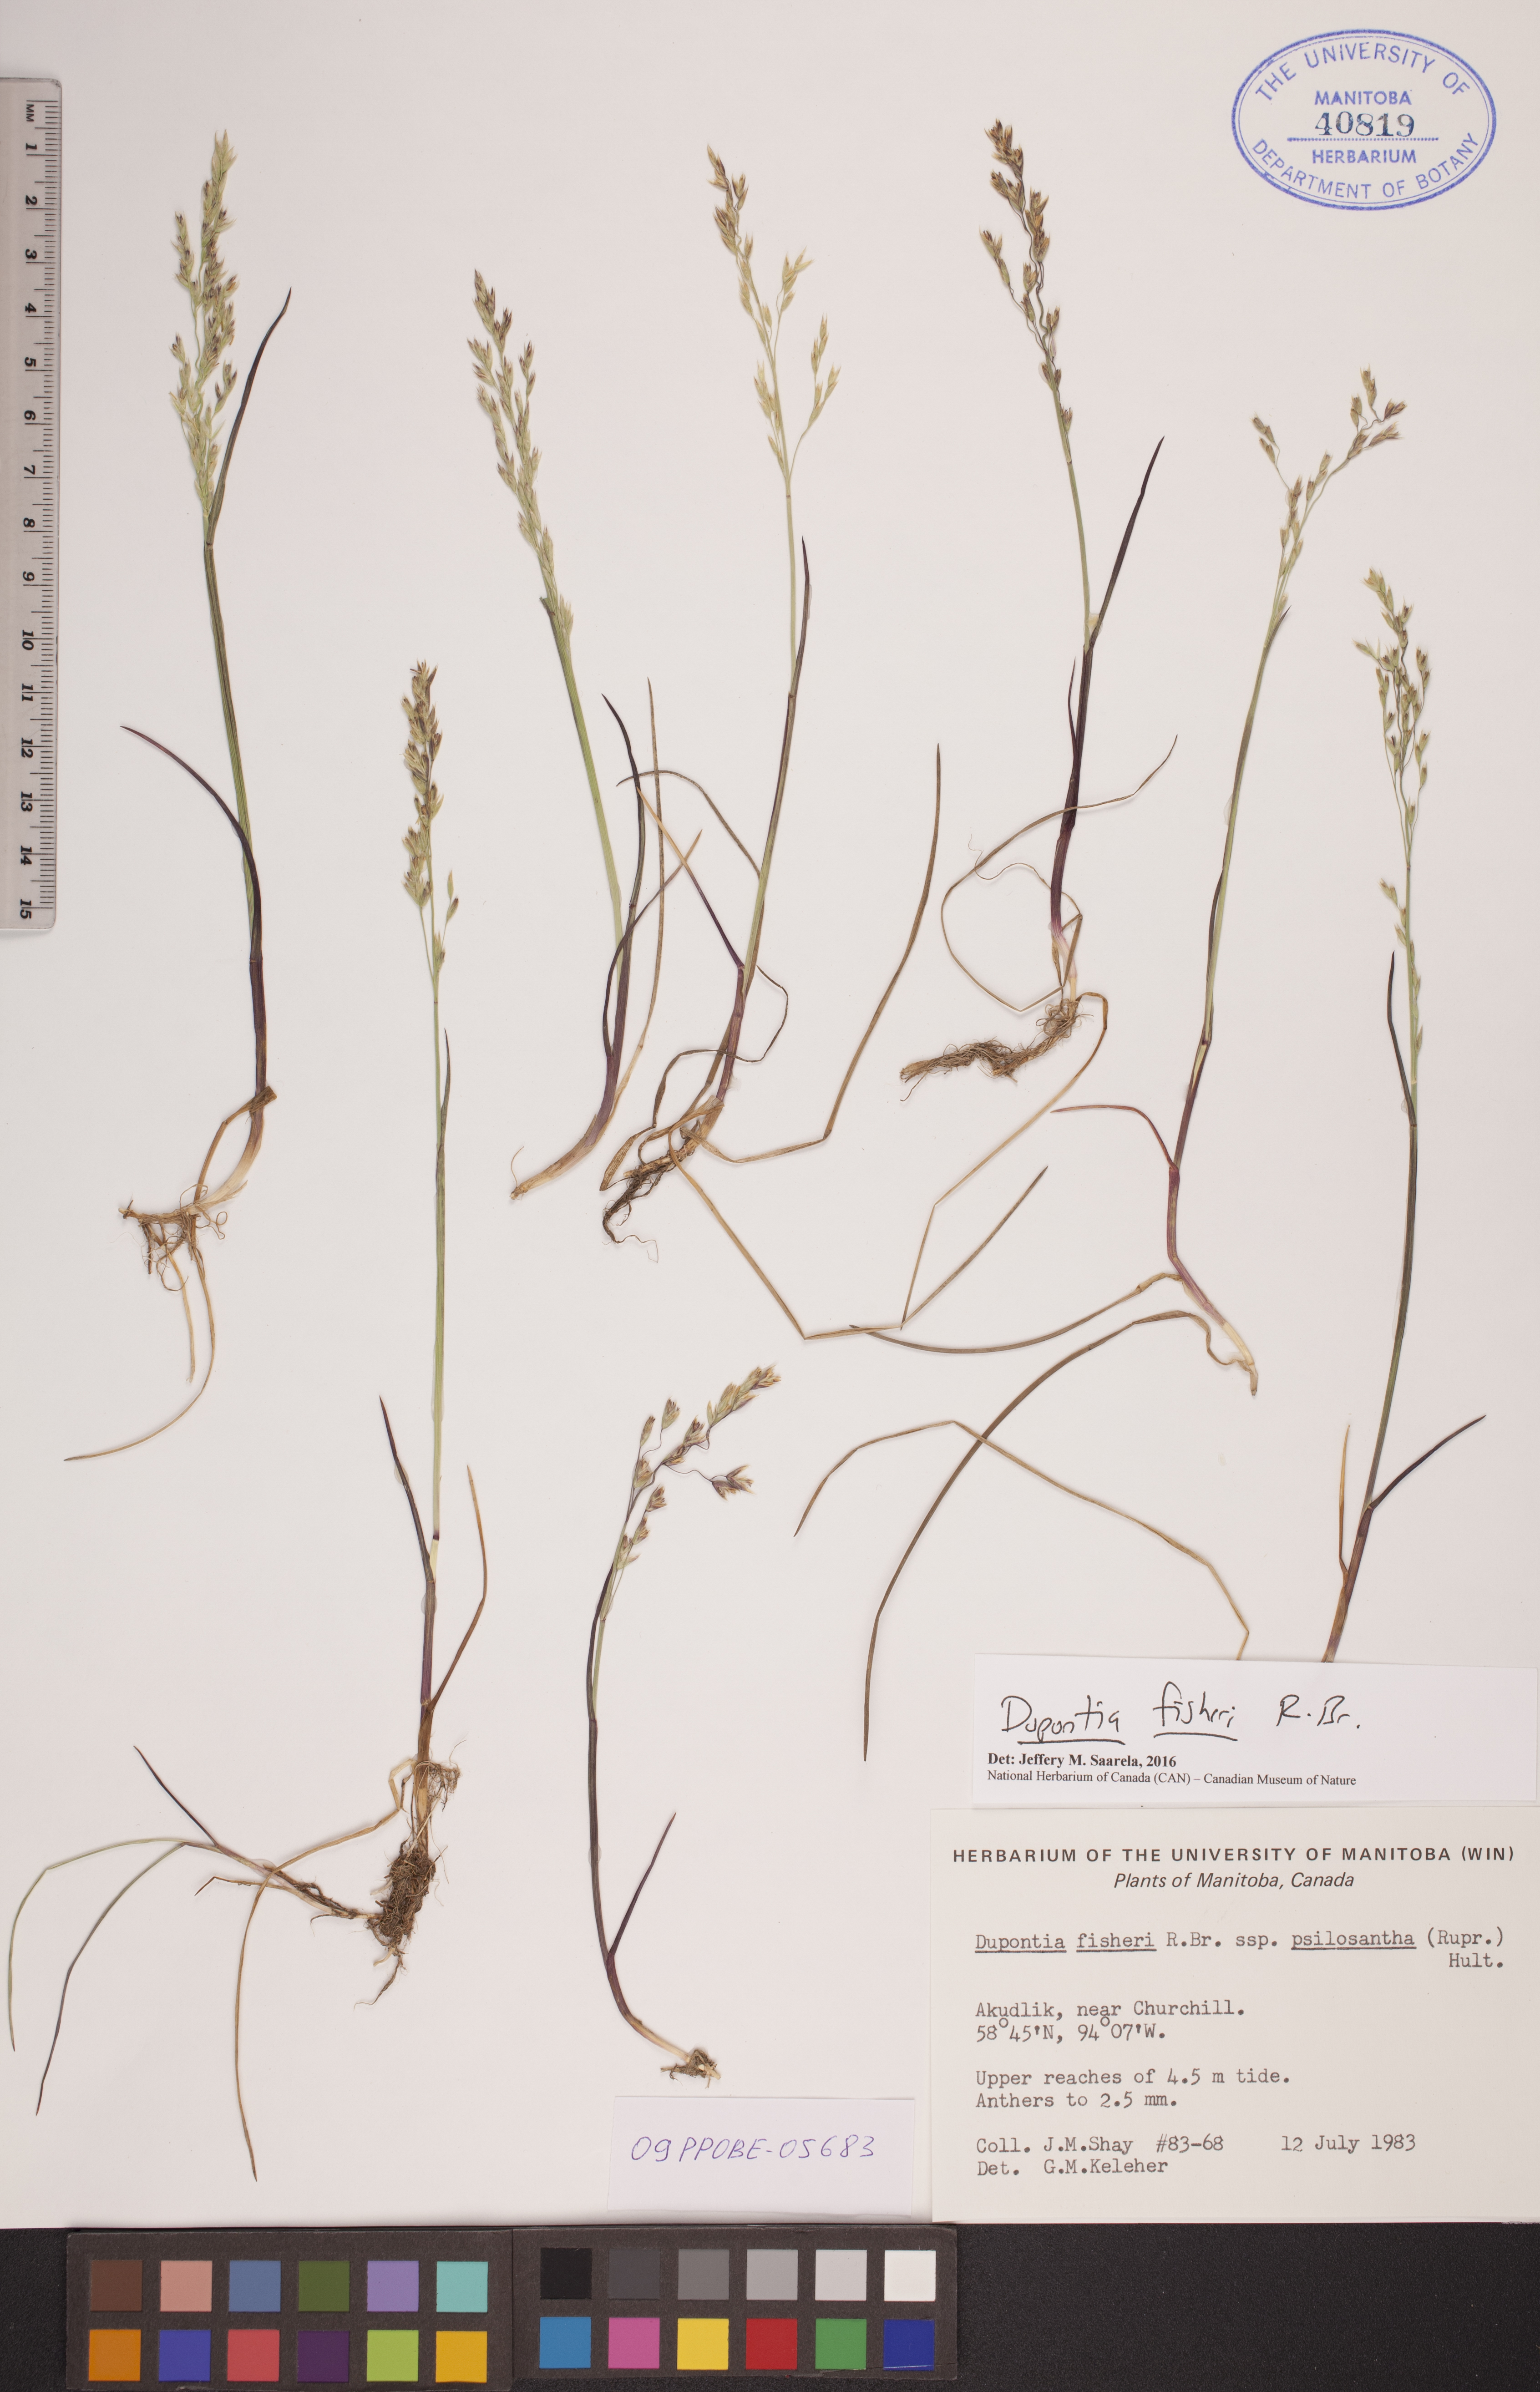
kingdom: Plantae
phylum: Tracheophyta
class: Liliopsida
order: Poales
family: Poaceae
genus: Dupontia
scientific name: Dupontia fisheri
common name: Tundra grass
